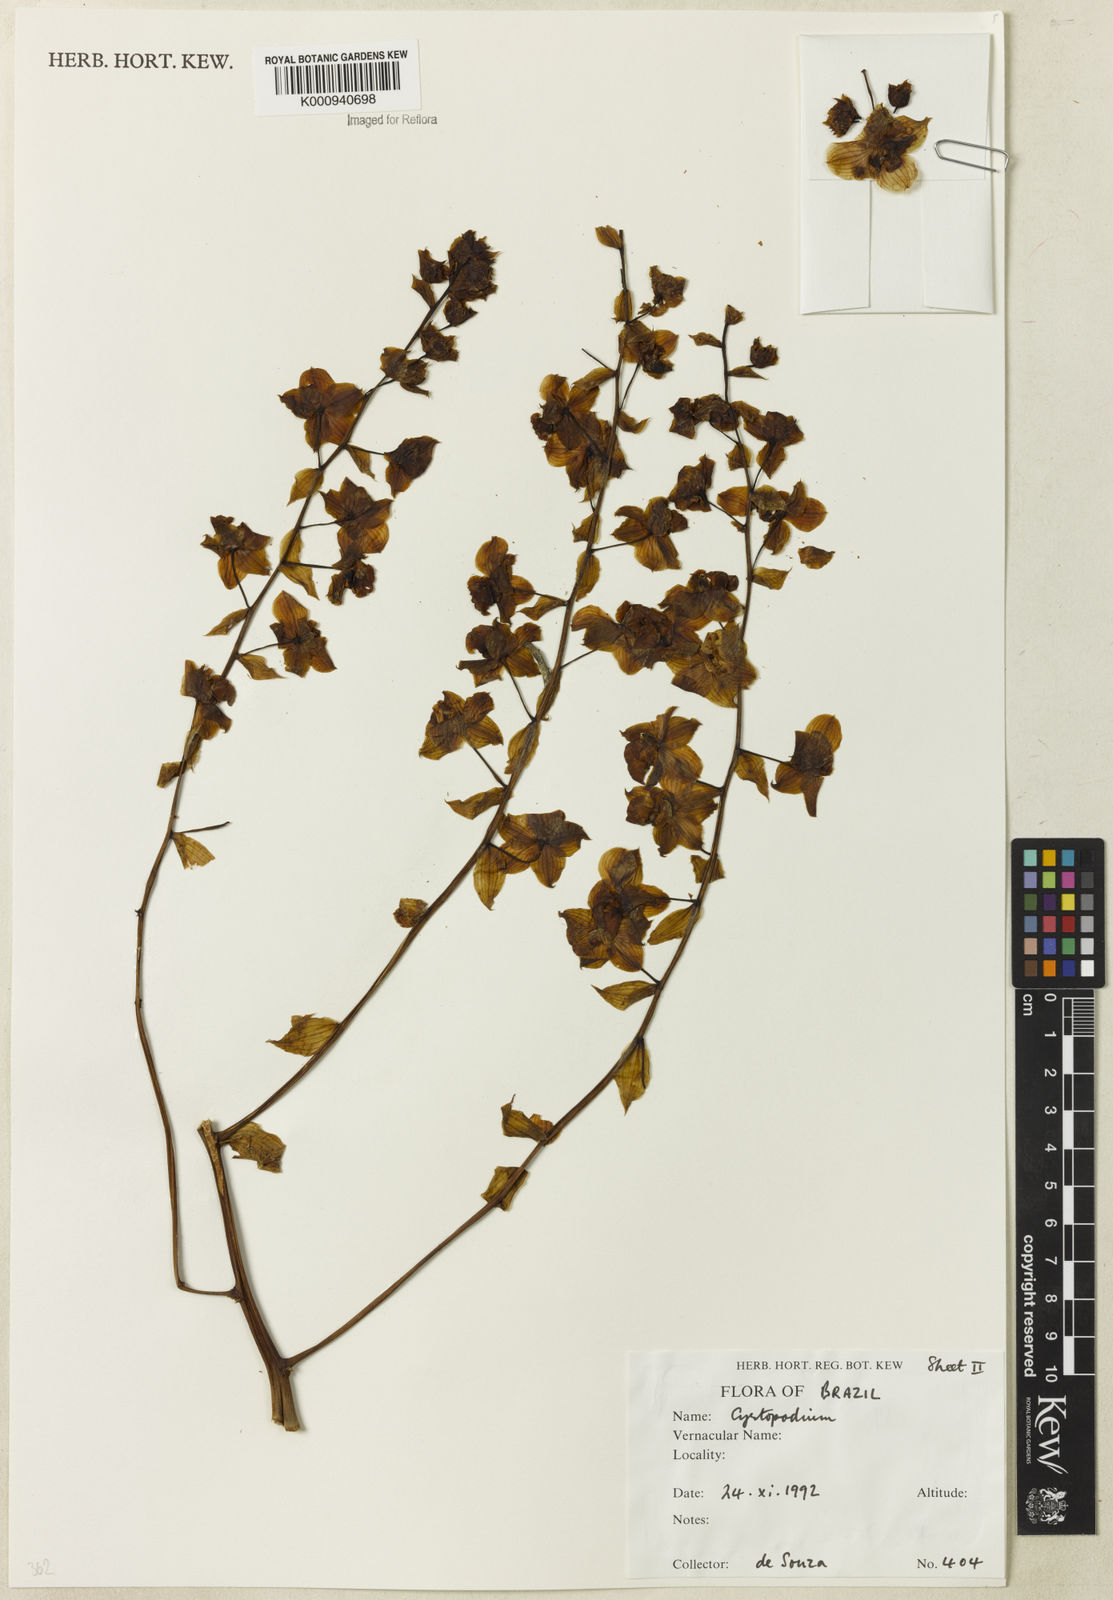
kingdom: Plantae
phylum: Tracheophyta
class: Liliopsida
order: Asparagales
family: Orchidaceae
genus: Cyrtopodium
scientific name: Cyrtopodium
